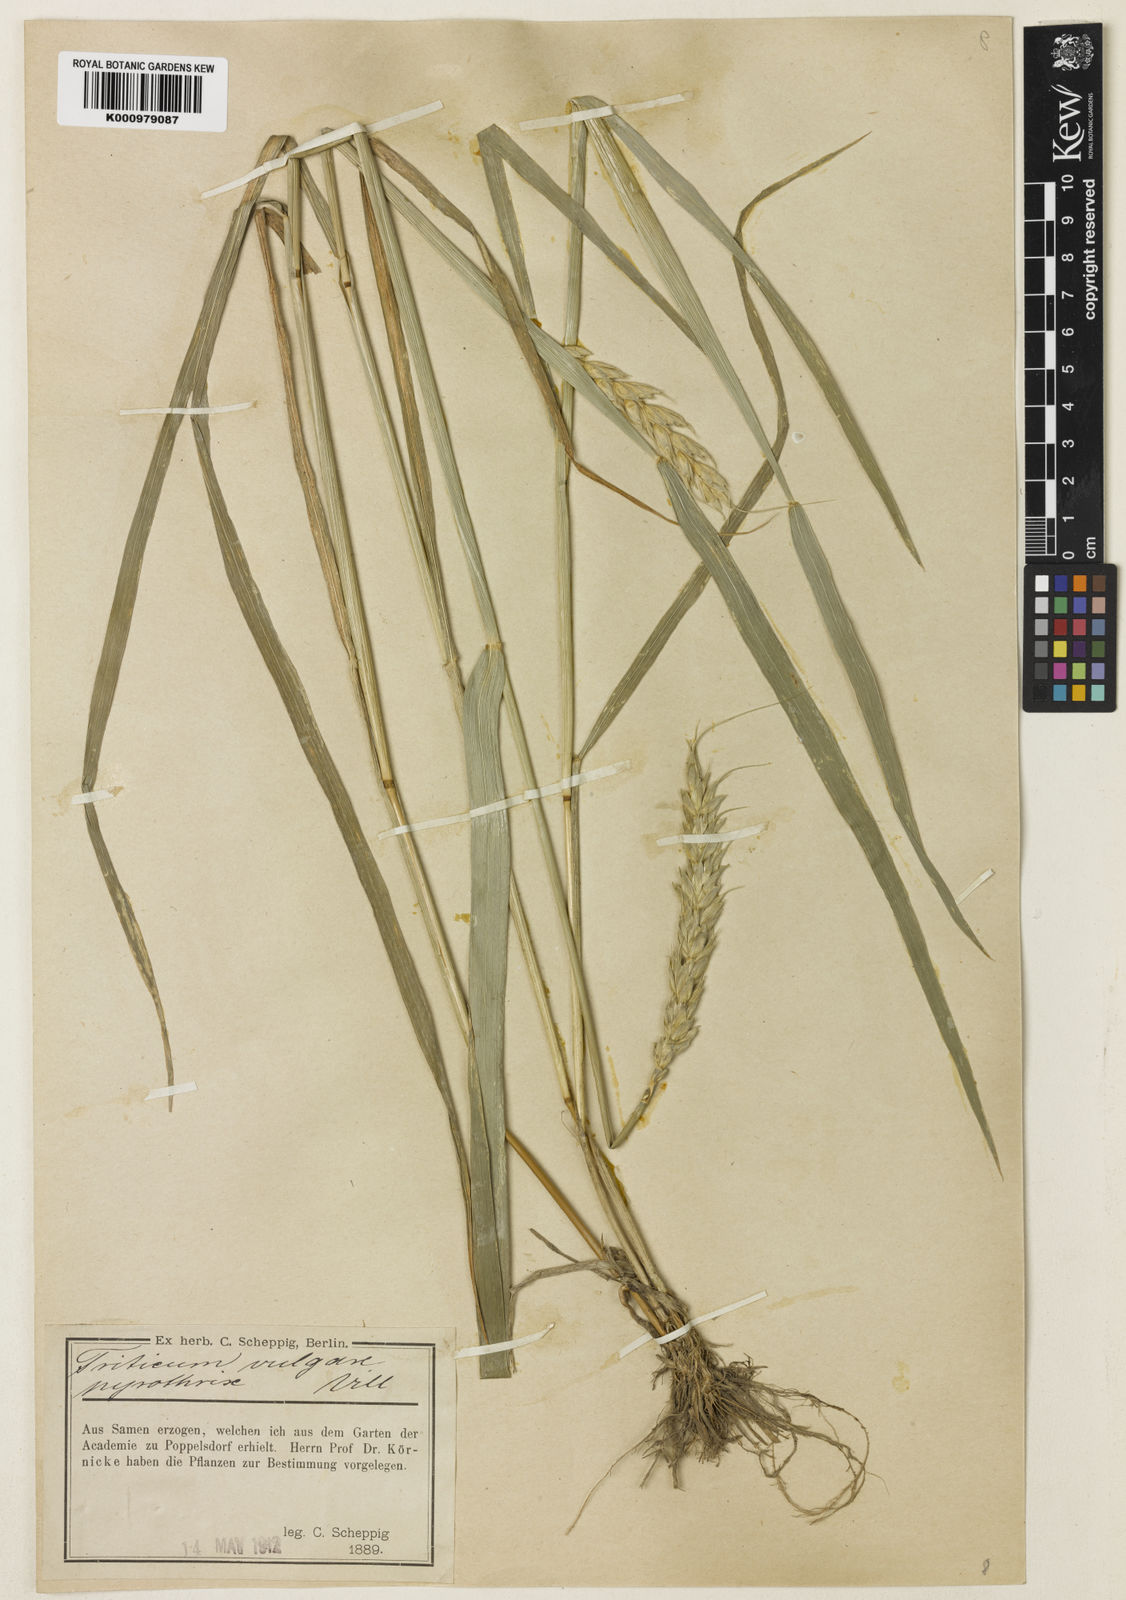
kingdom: Plantae
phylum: Tracheophyta
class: Liliopsida
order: Poales
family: Poaceae
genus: Triticum
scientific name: Triticum aestivum
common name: Common wheat
